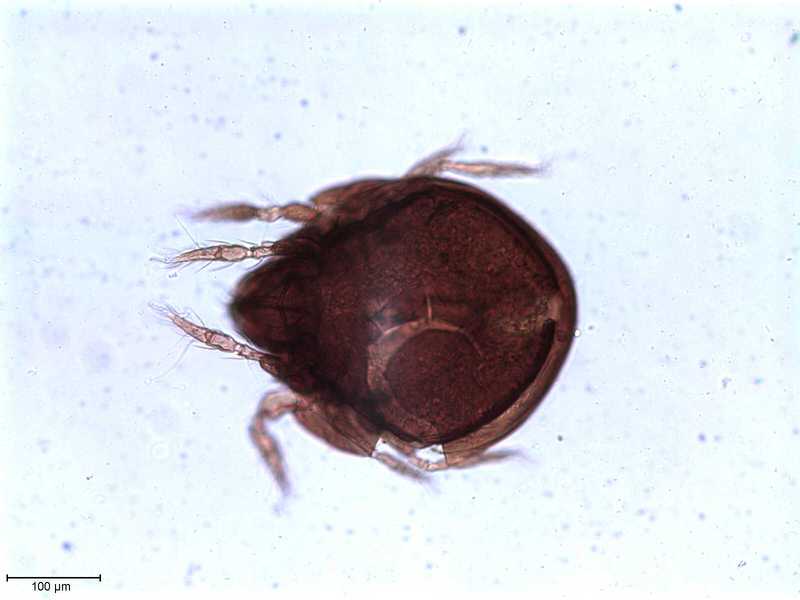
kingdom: Animalia
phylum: Arthropoda
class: Arachnida
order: Sarcoptiformes
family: Tegoribatidae
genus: Plakoribates
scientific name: Plakoribates multicuspidatus
